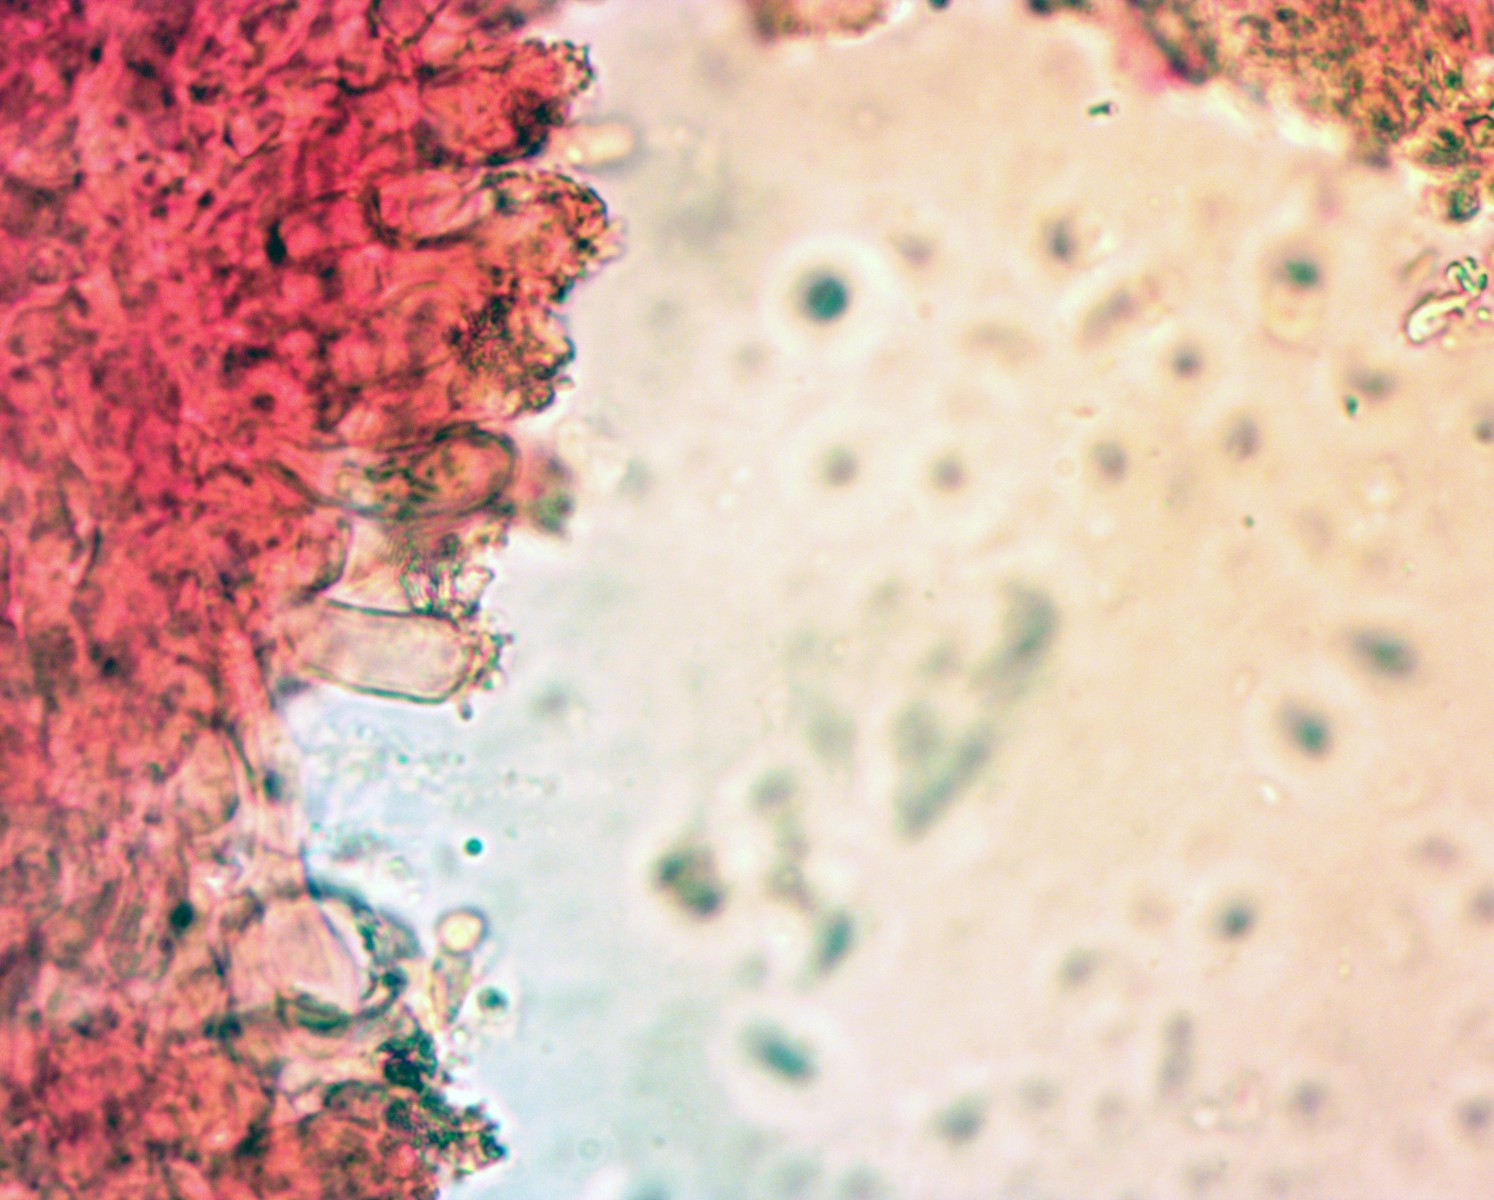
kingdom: Fungi
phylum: Basidiomycota
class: Agaricomycetes
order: Agaricales
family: Marasmiaceae
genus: Marasmius
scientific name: Marasmius wettsteinii
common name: Wettsteins bruskhat
